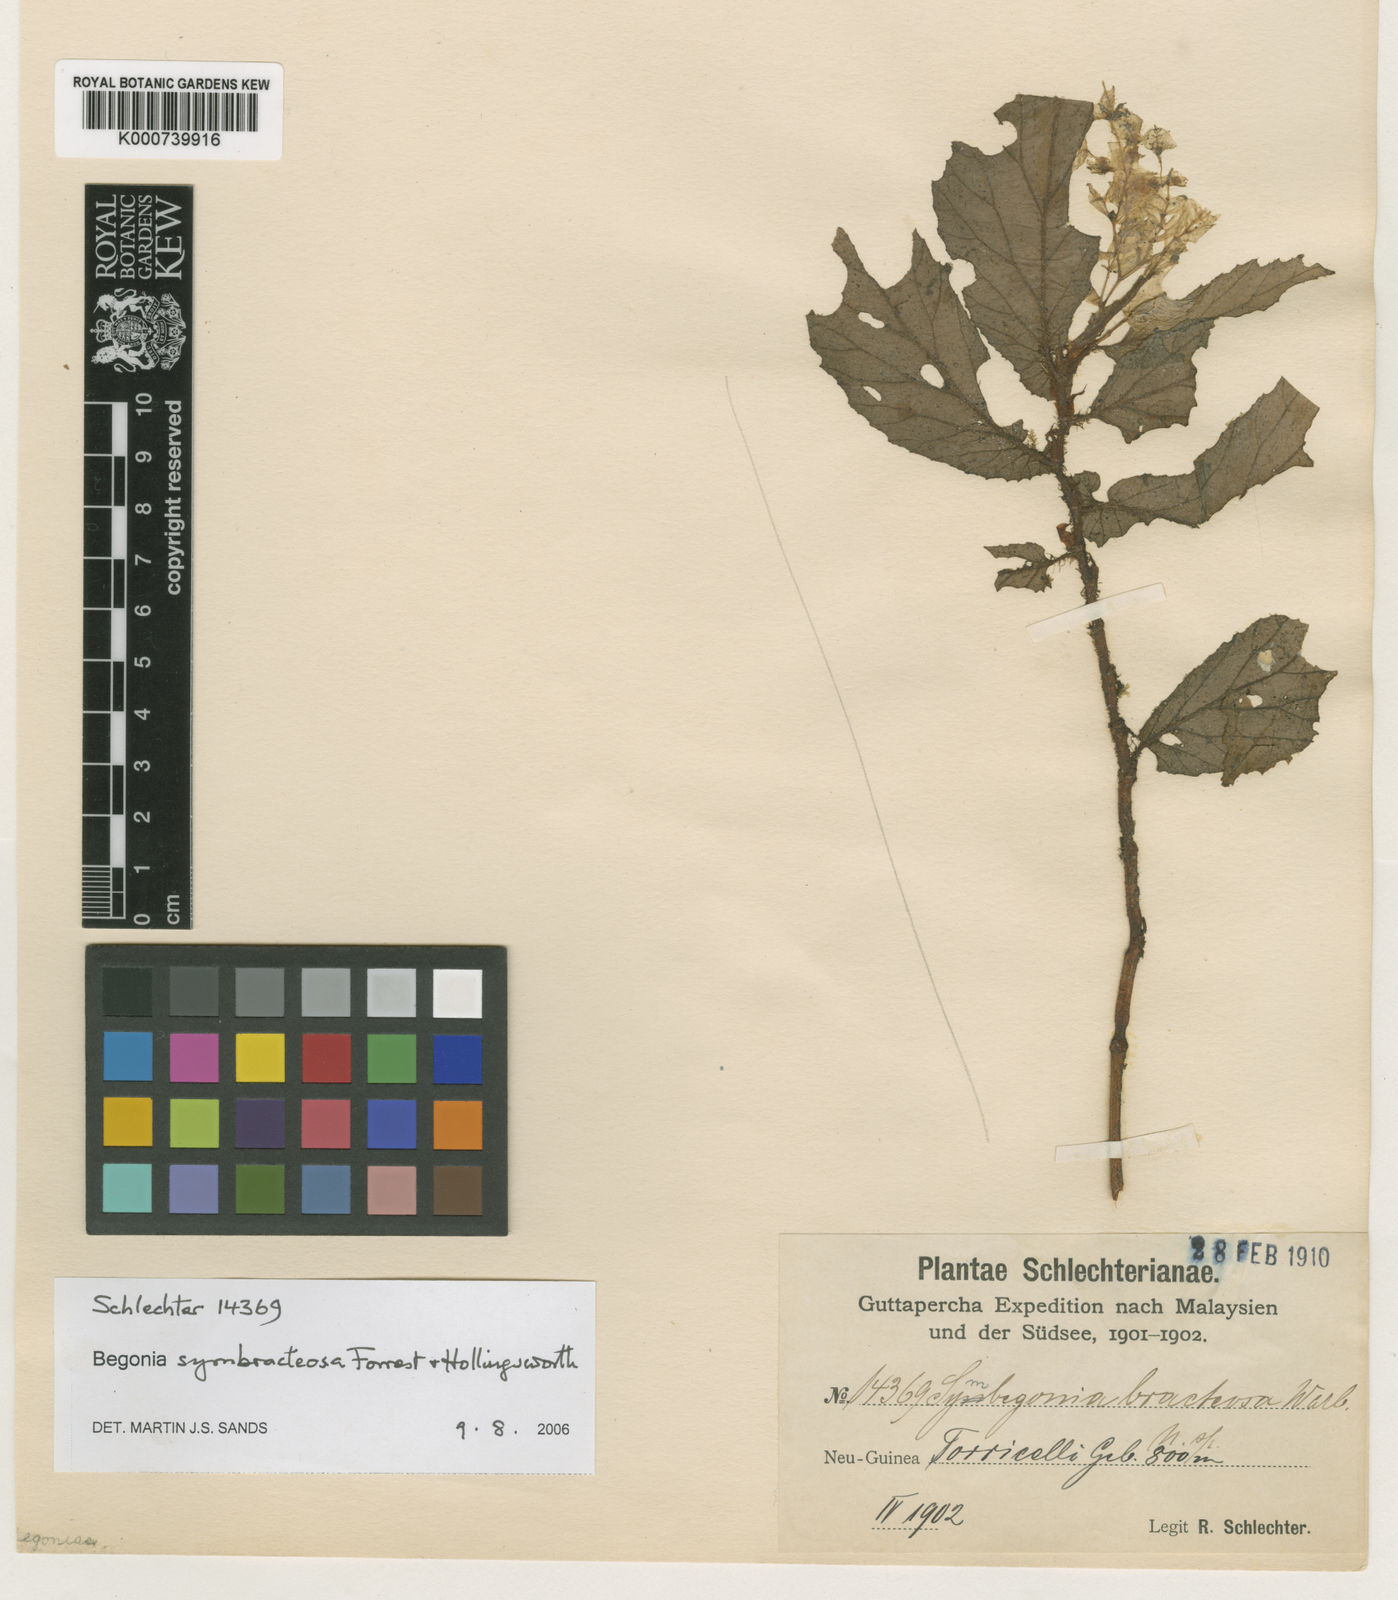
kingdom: Plantae
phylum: Tracheophyta
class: Magnoliopsida
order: Cucurbitales
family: Begoniaceae
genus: Begonia
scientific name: Begonia symbracteosa
